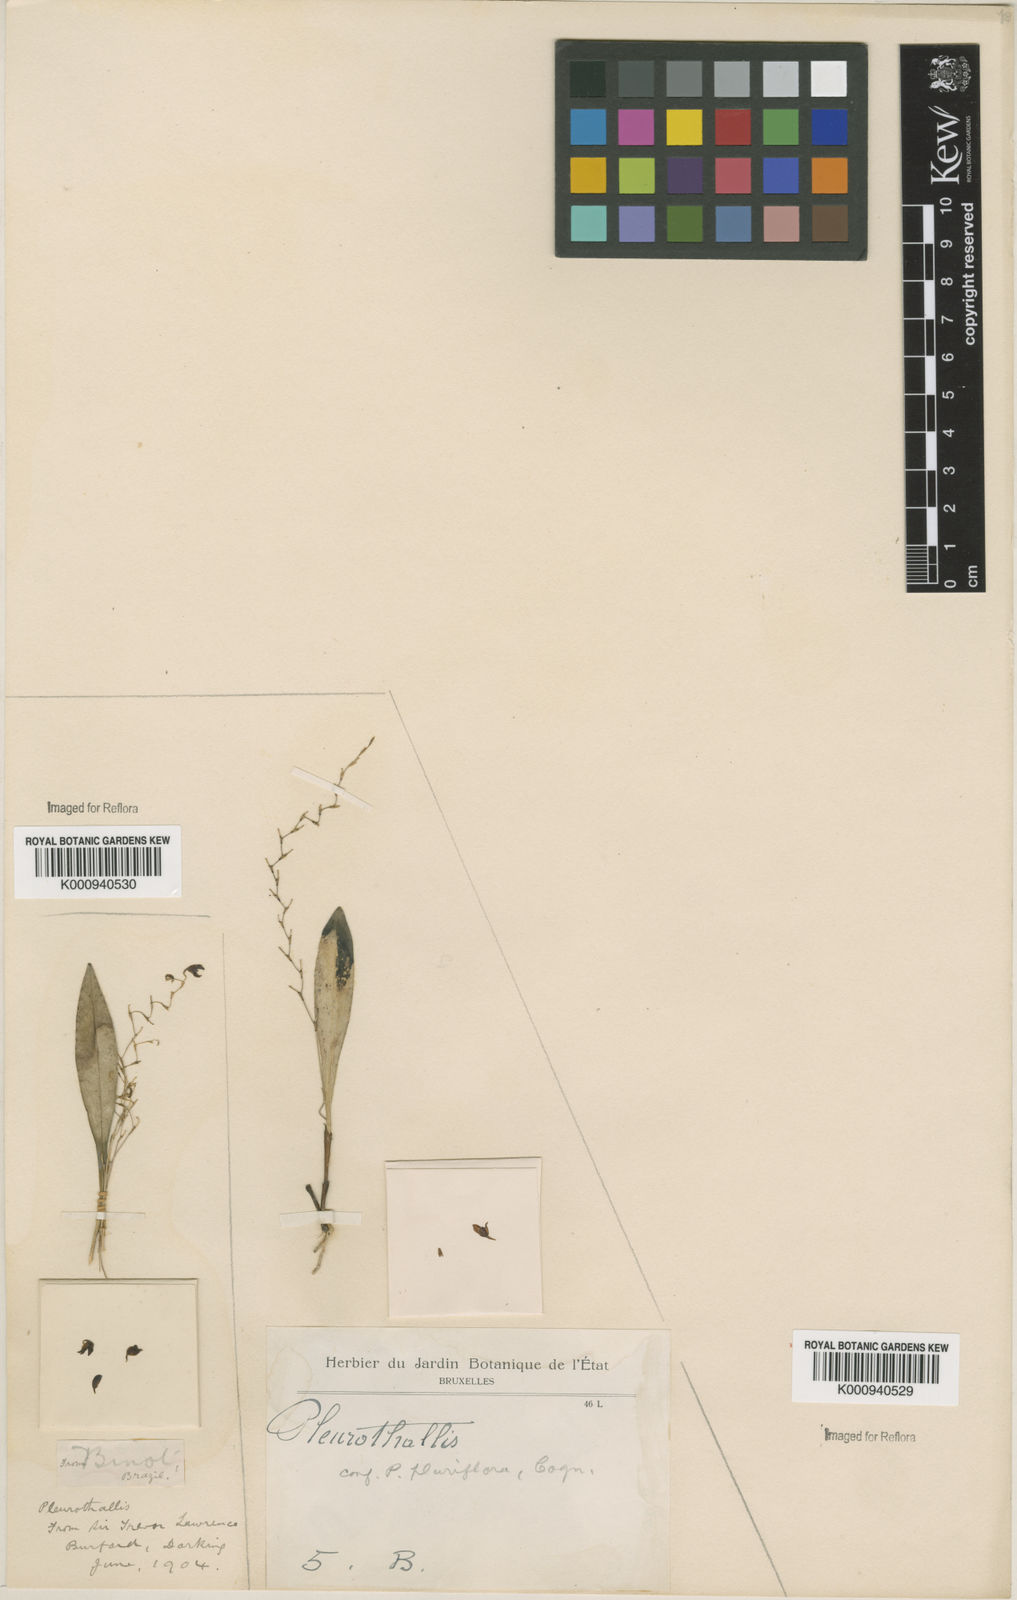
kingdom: Plantae
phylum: Tracheophyta
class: Liliopsida
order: Asparagales
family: Orchidaceae
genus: Specklinia
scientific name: Specklinia
